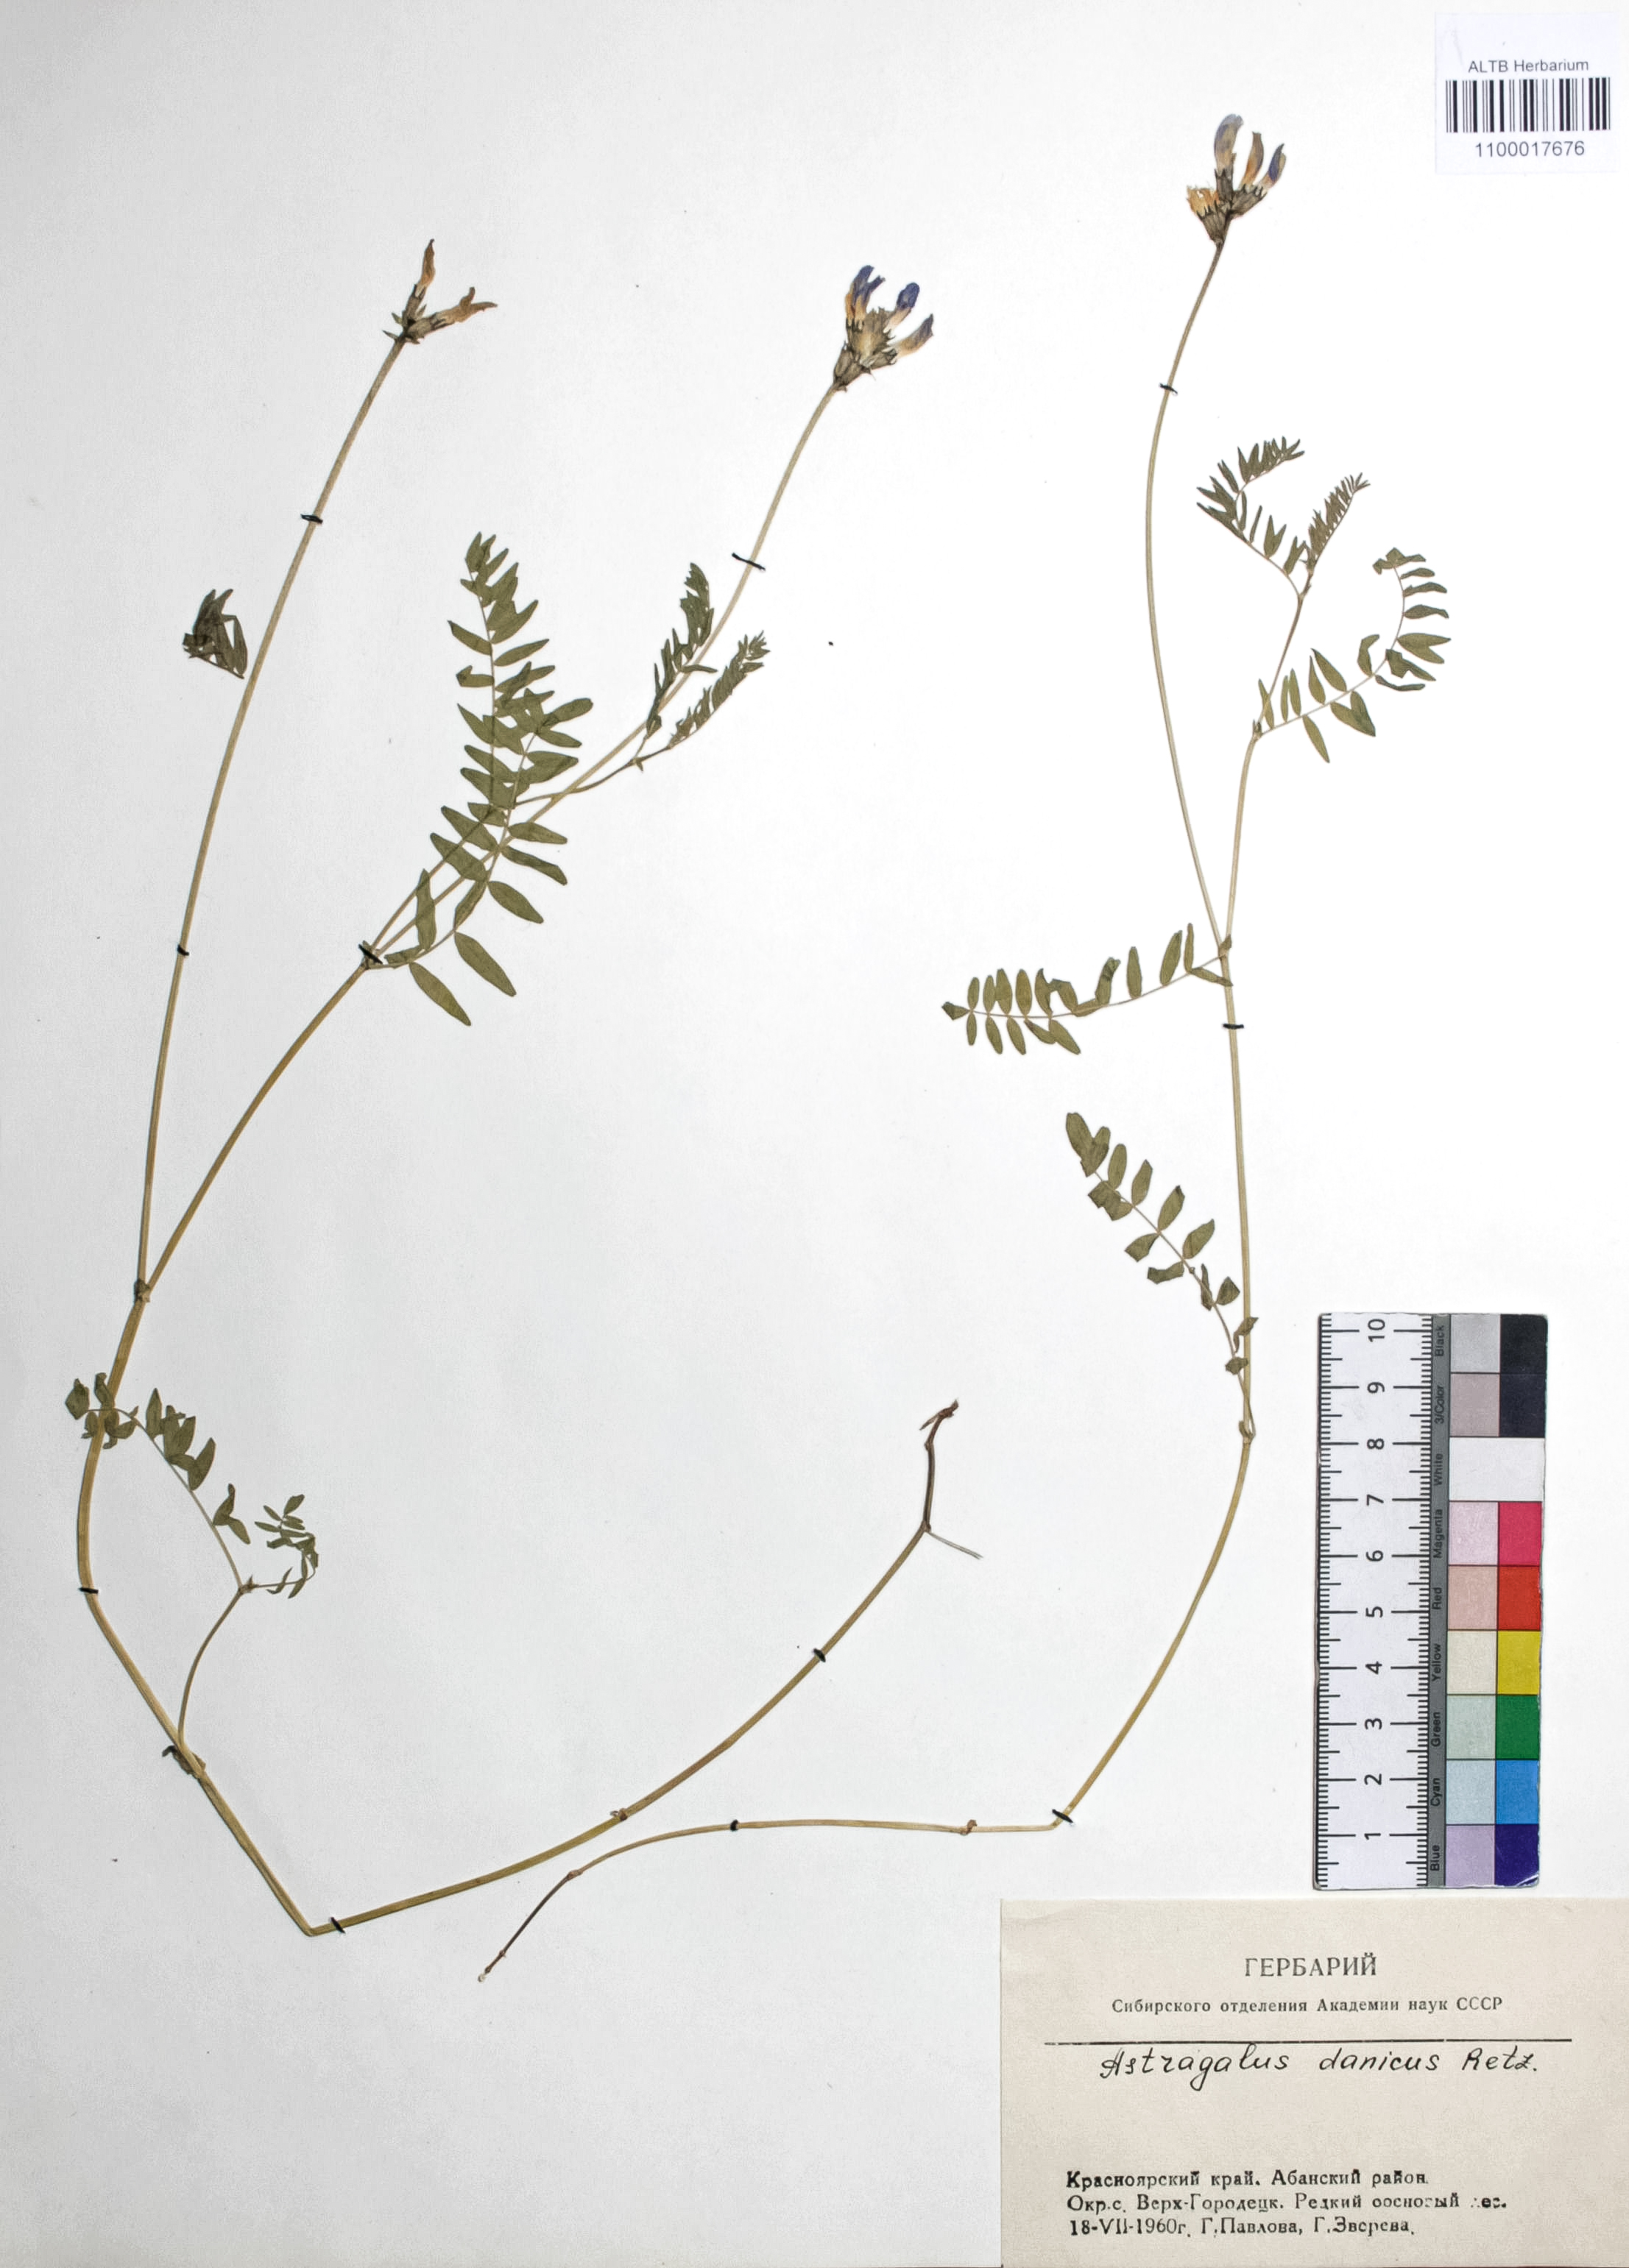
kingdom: Plantae
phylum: Tracheophyta
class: Magnoliopsida
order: Fabales
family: Fabaceae
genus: Astragalus
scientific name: Astragalus danicus
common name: Purple milk-vetch
